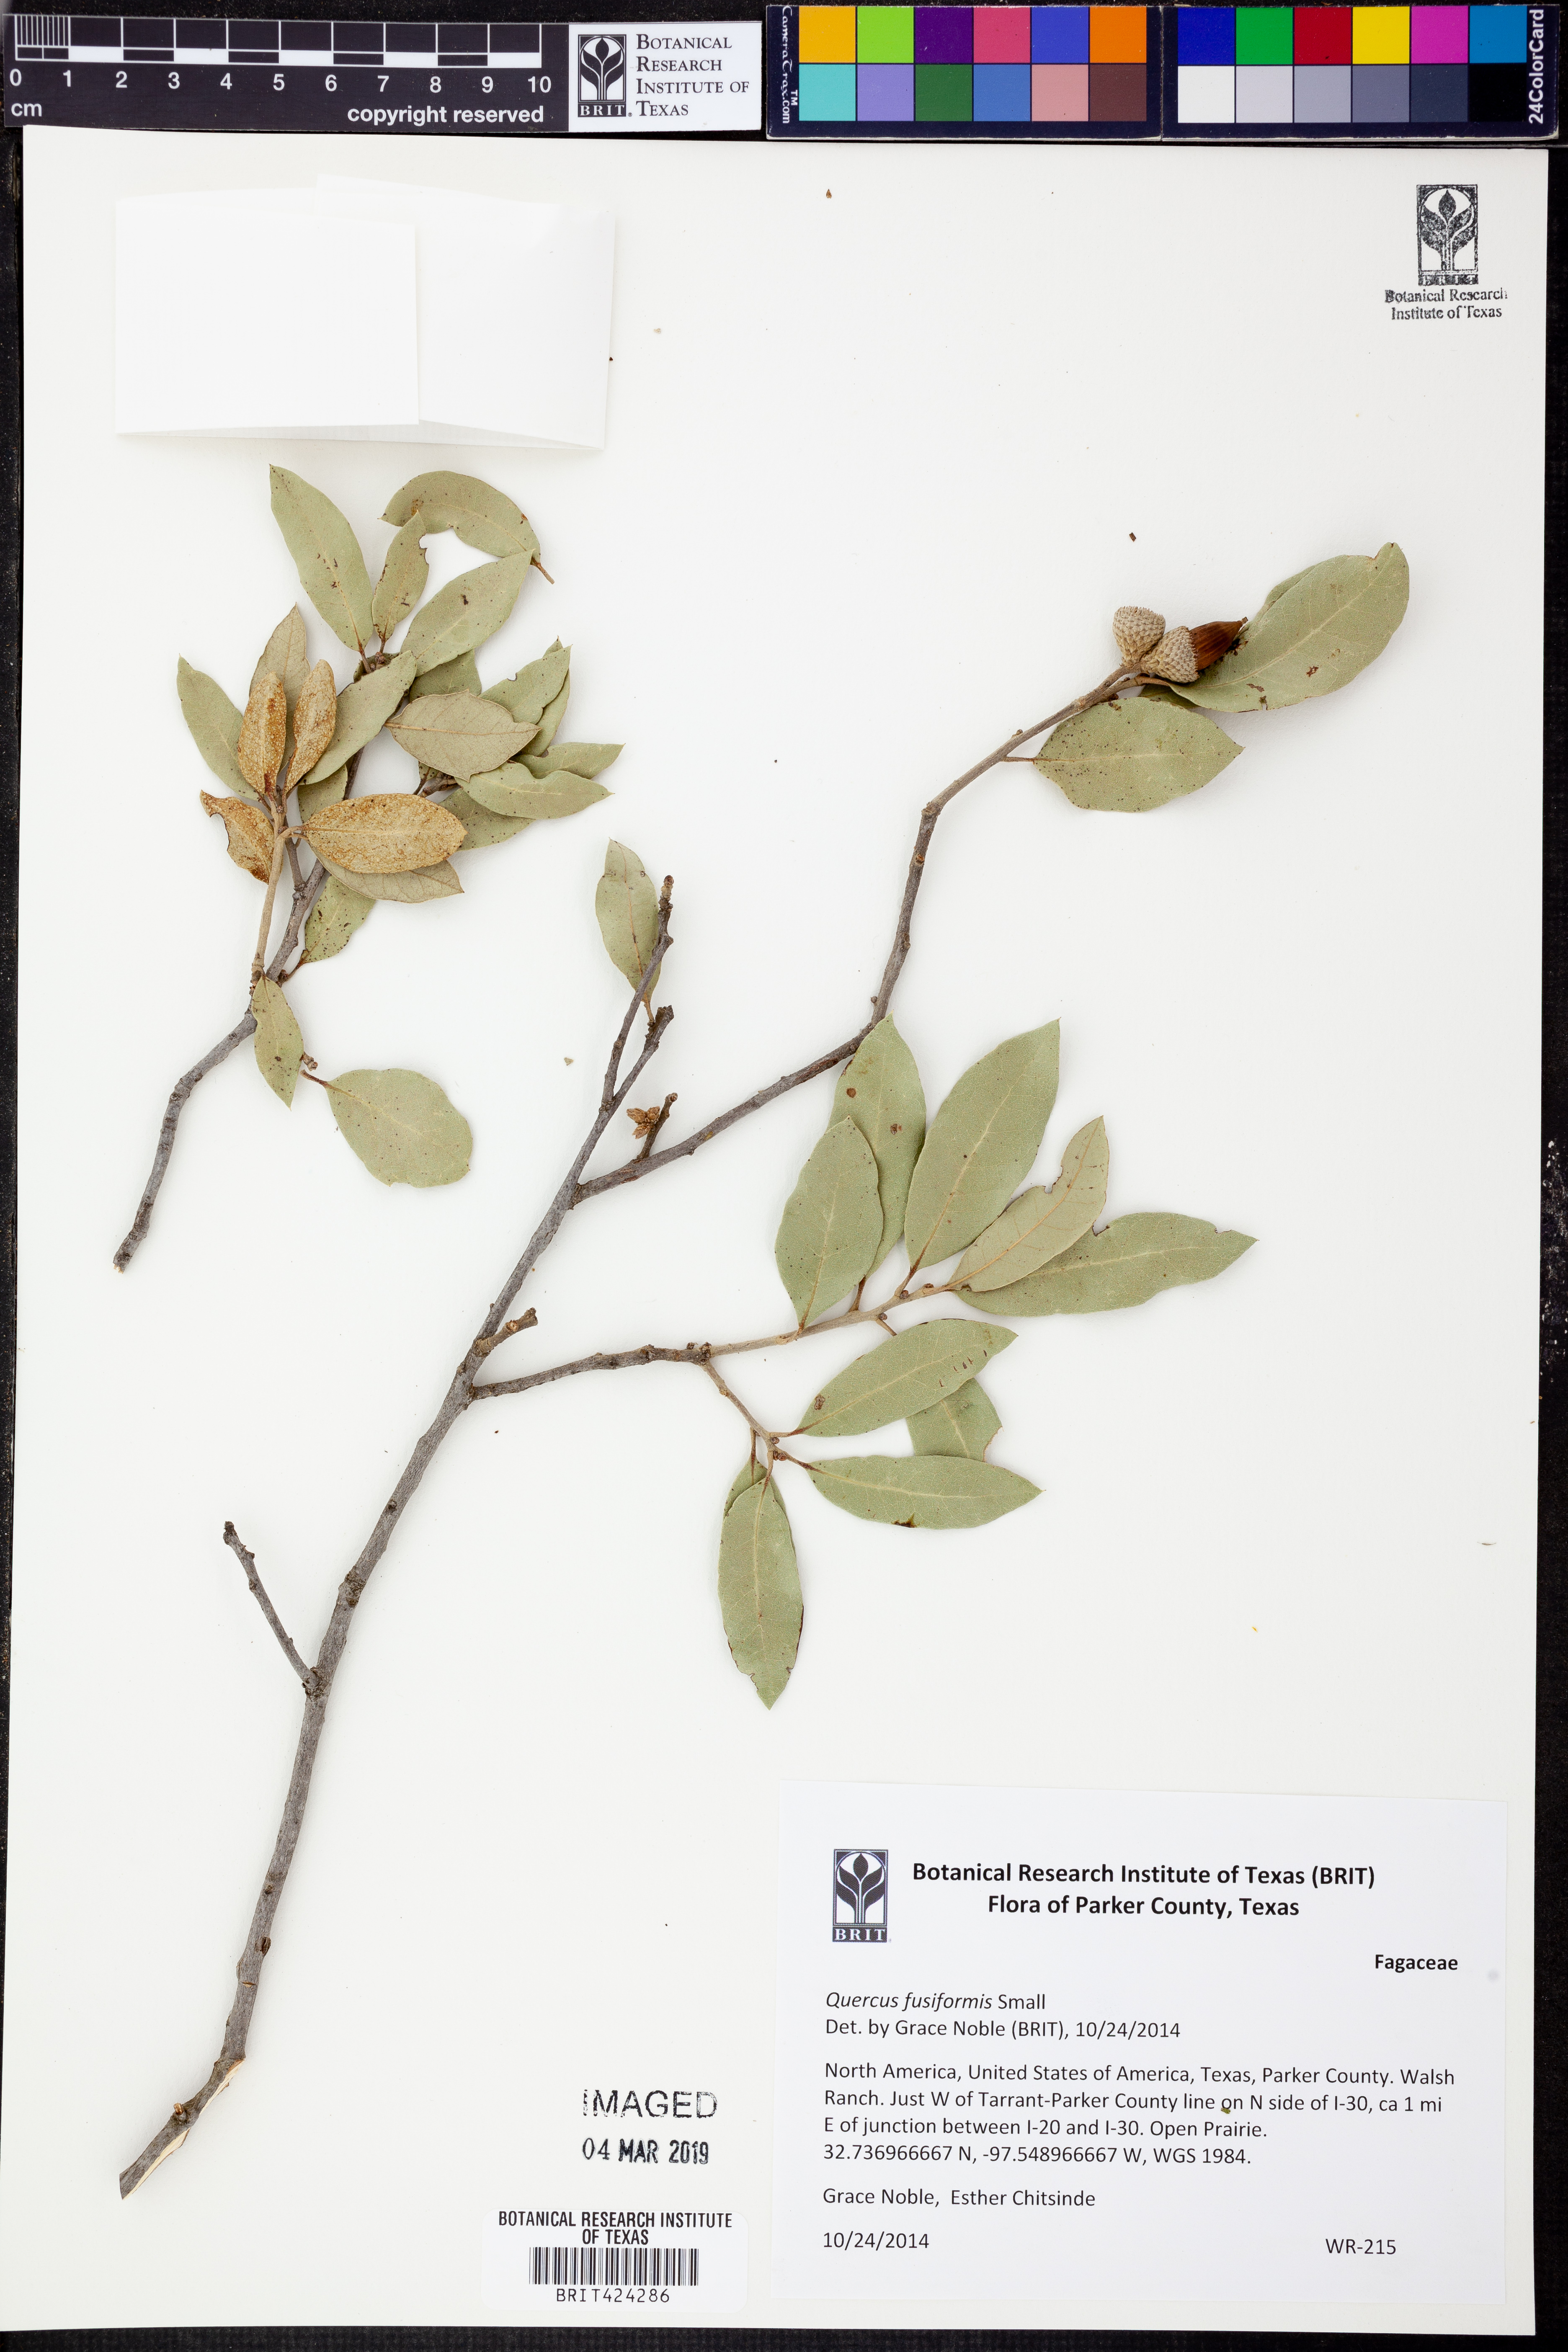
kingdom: Plantae
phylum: Tracheophyta
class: Magnoliopsida
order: Fagales
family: Fagaceae
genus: Quercus
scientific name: Quercus fusiformis
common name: Texas live oak
